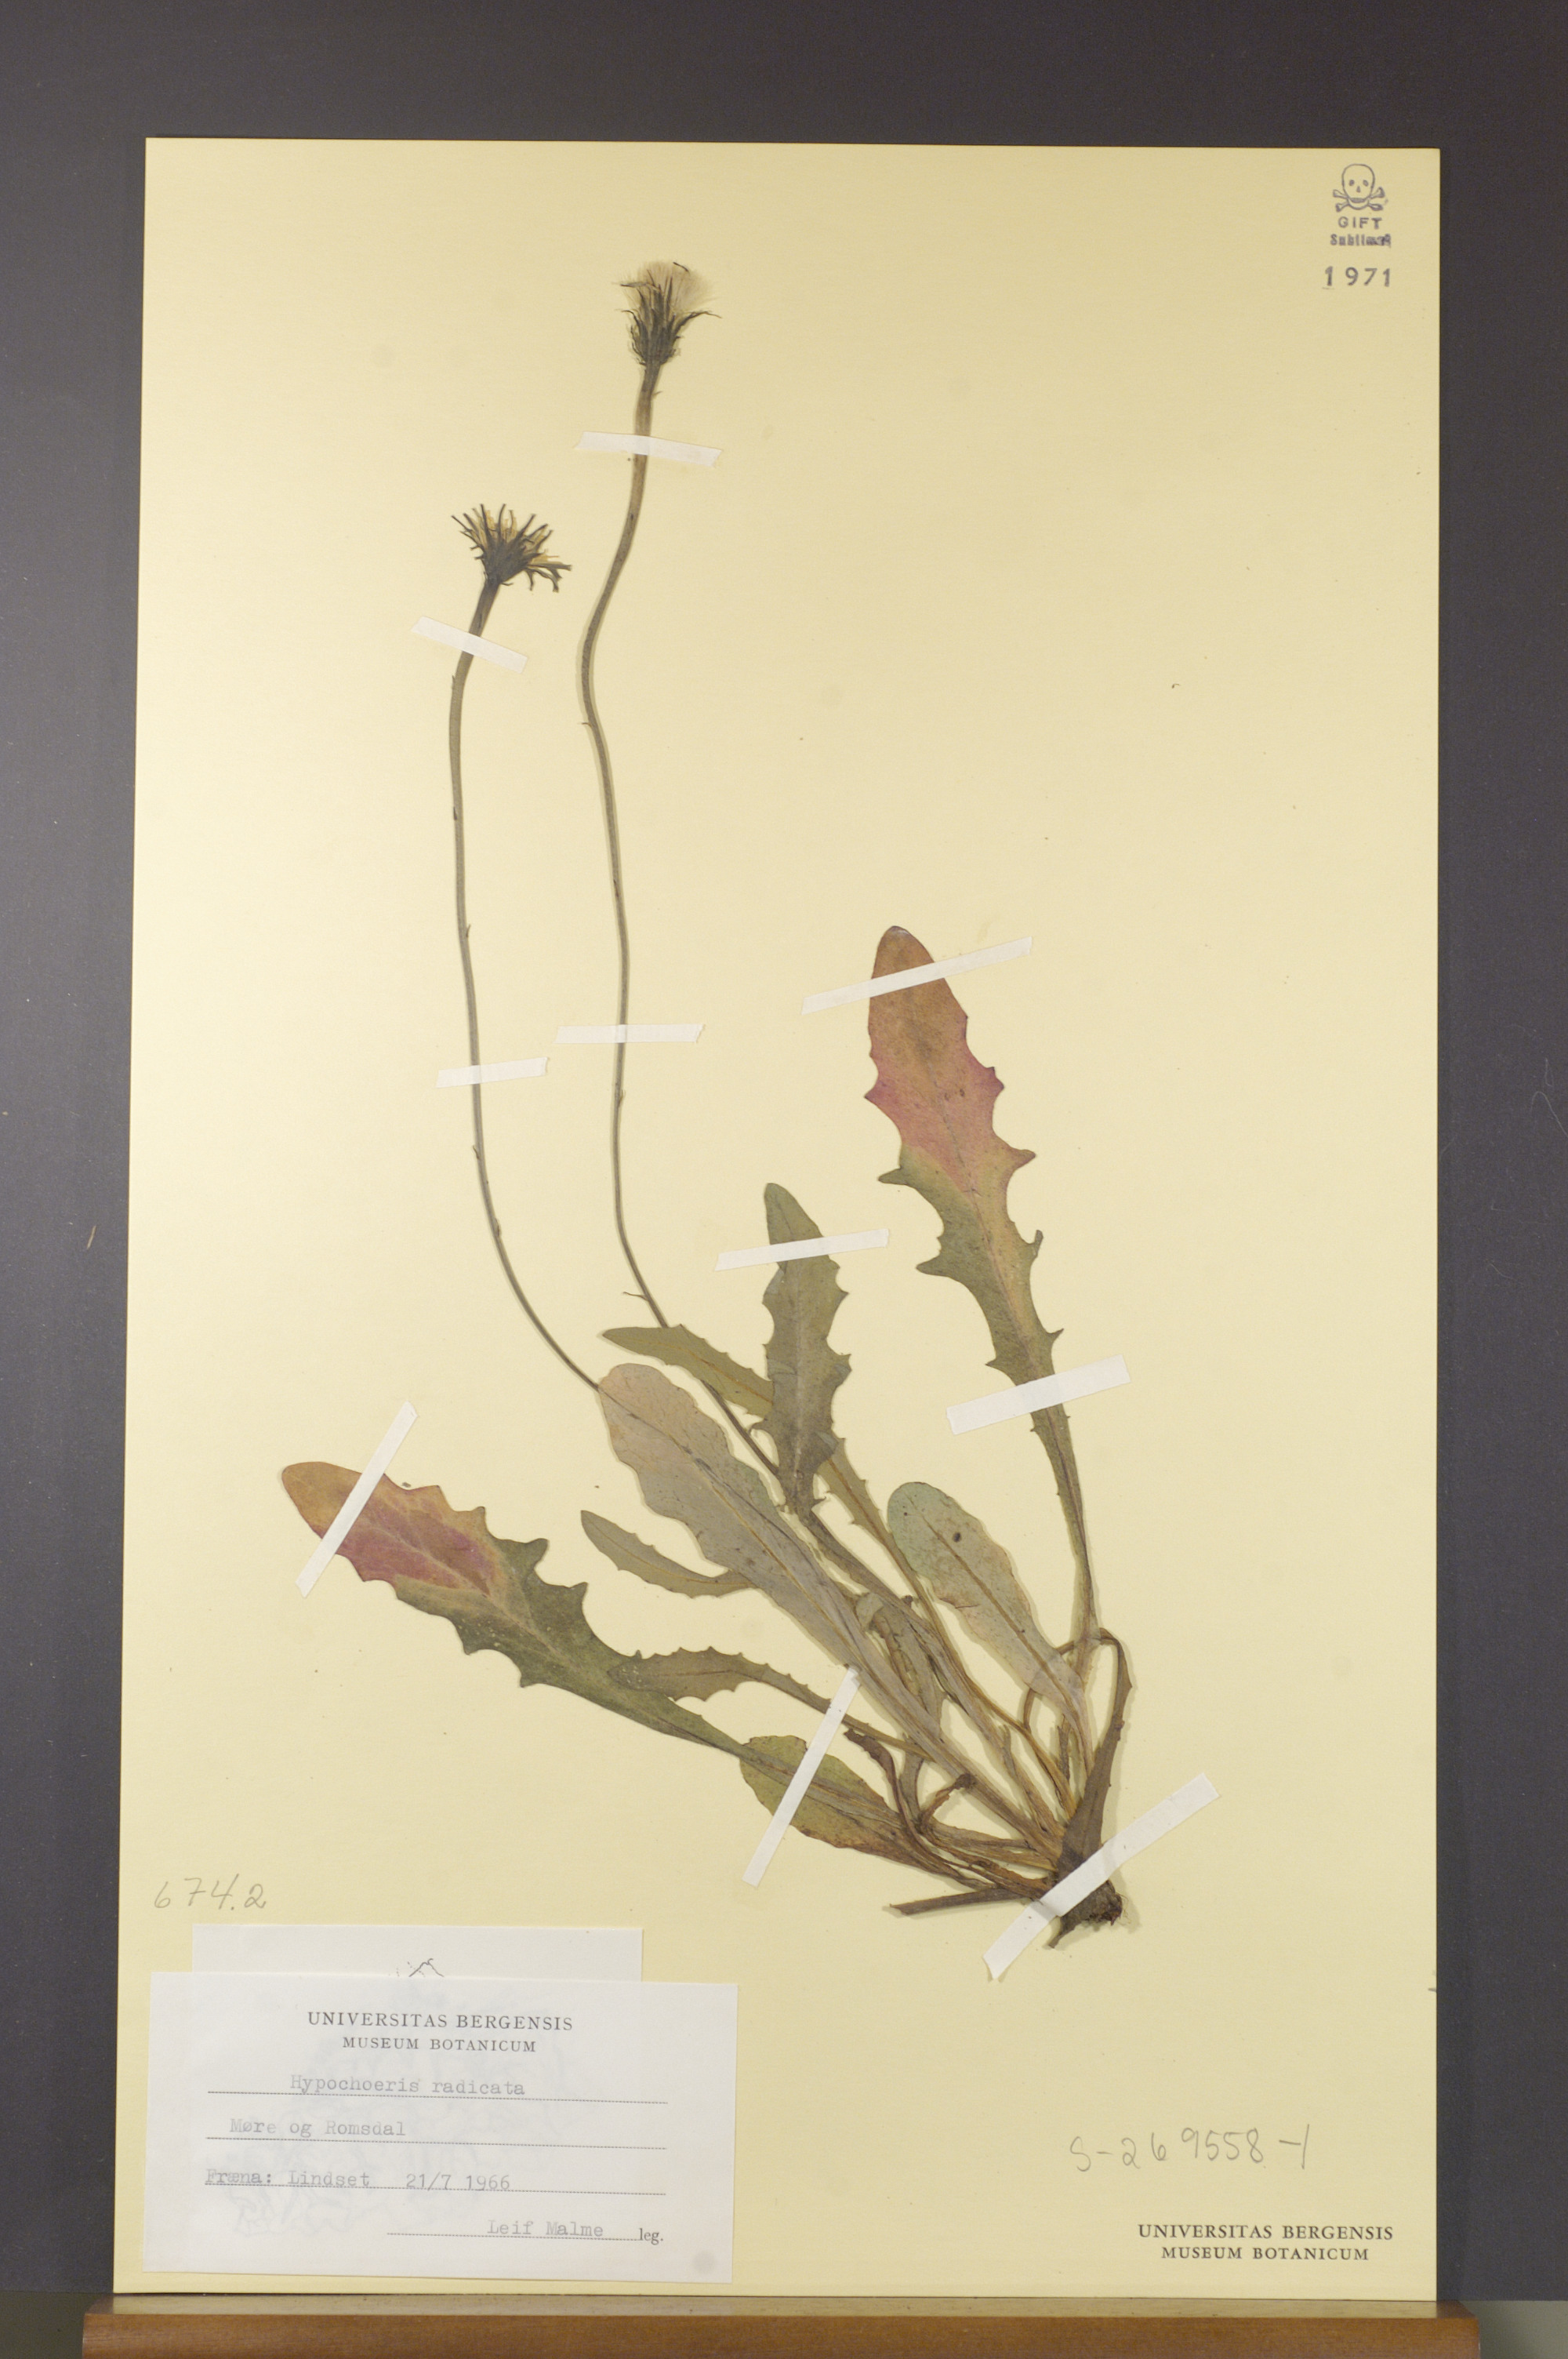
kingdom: Plantae
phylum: Tracheophyta
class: Magnoliopsida
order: Asterales
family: Asteraceae
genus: Hypochaeris
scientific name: Hypochaeris radicata
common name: Flatweed
